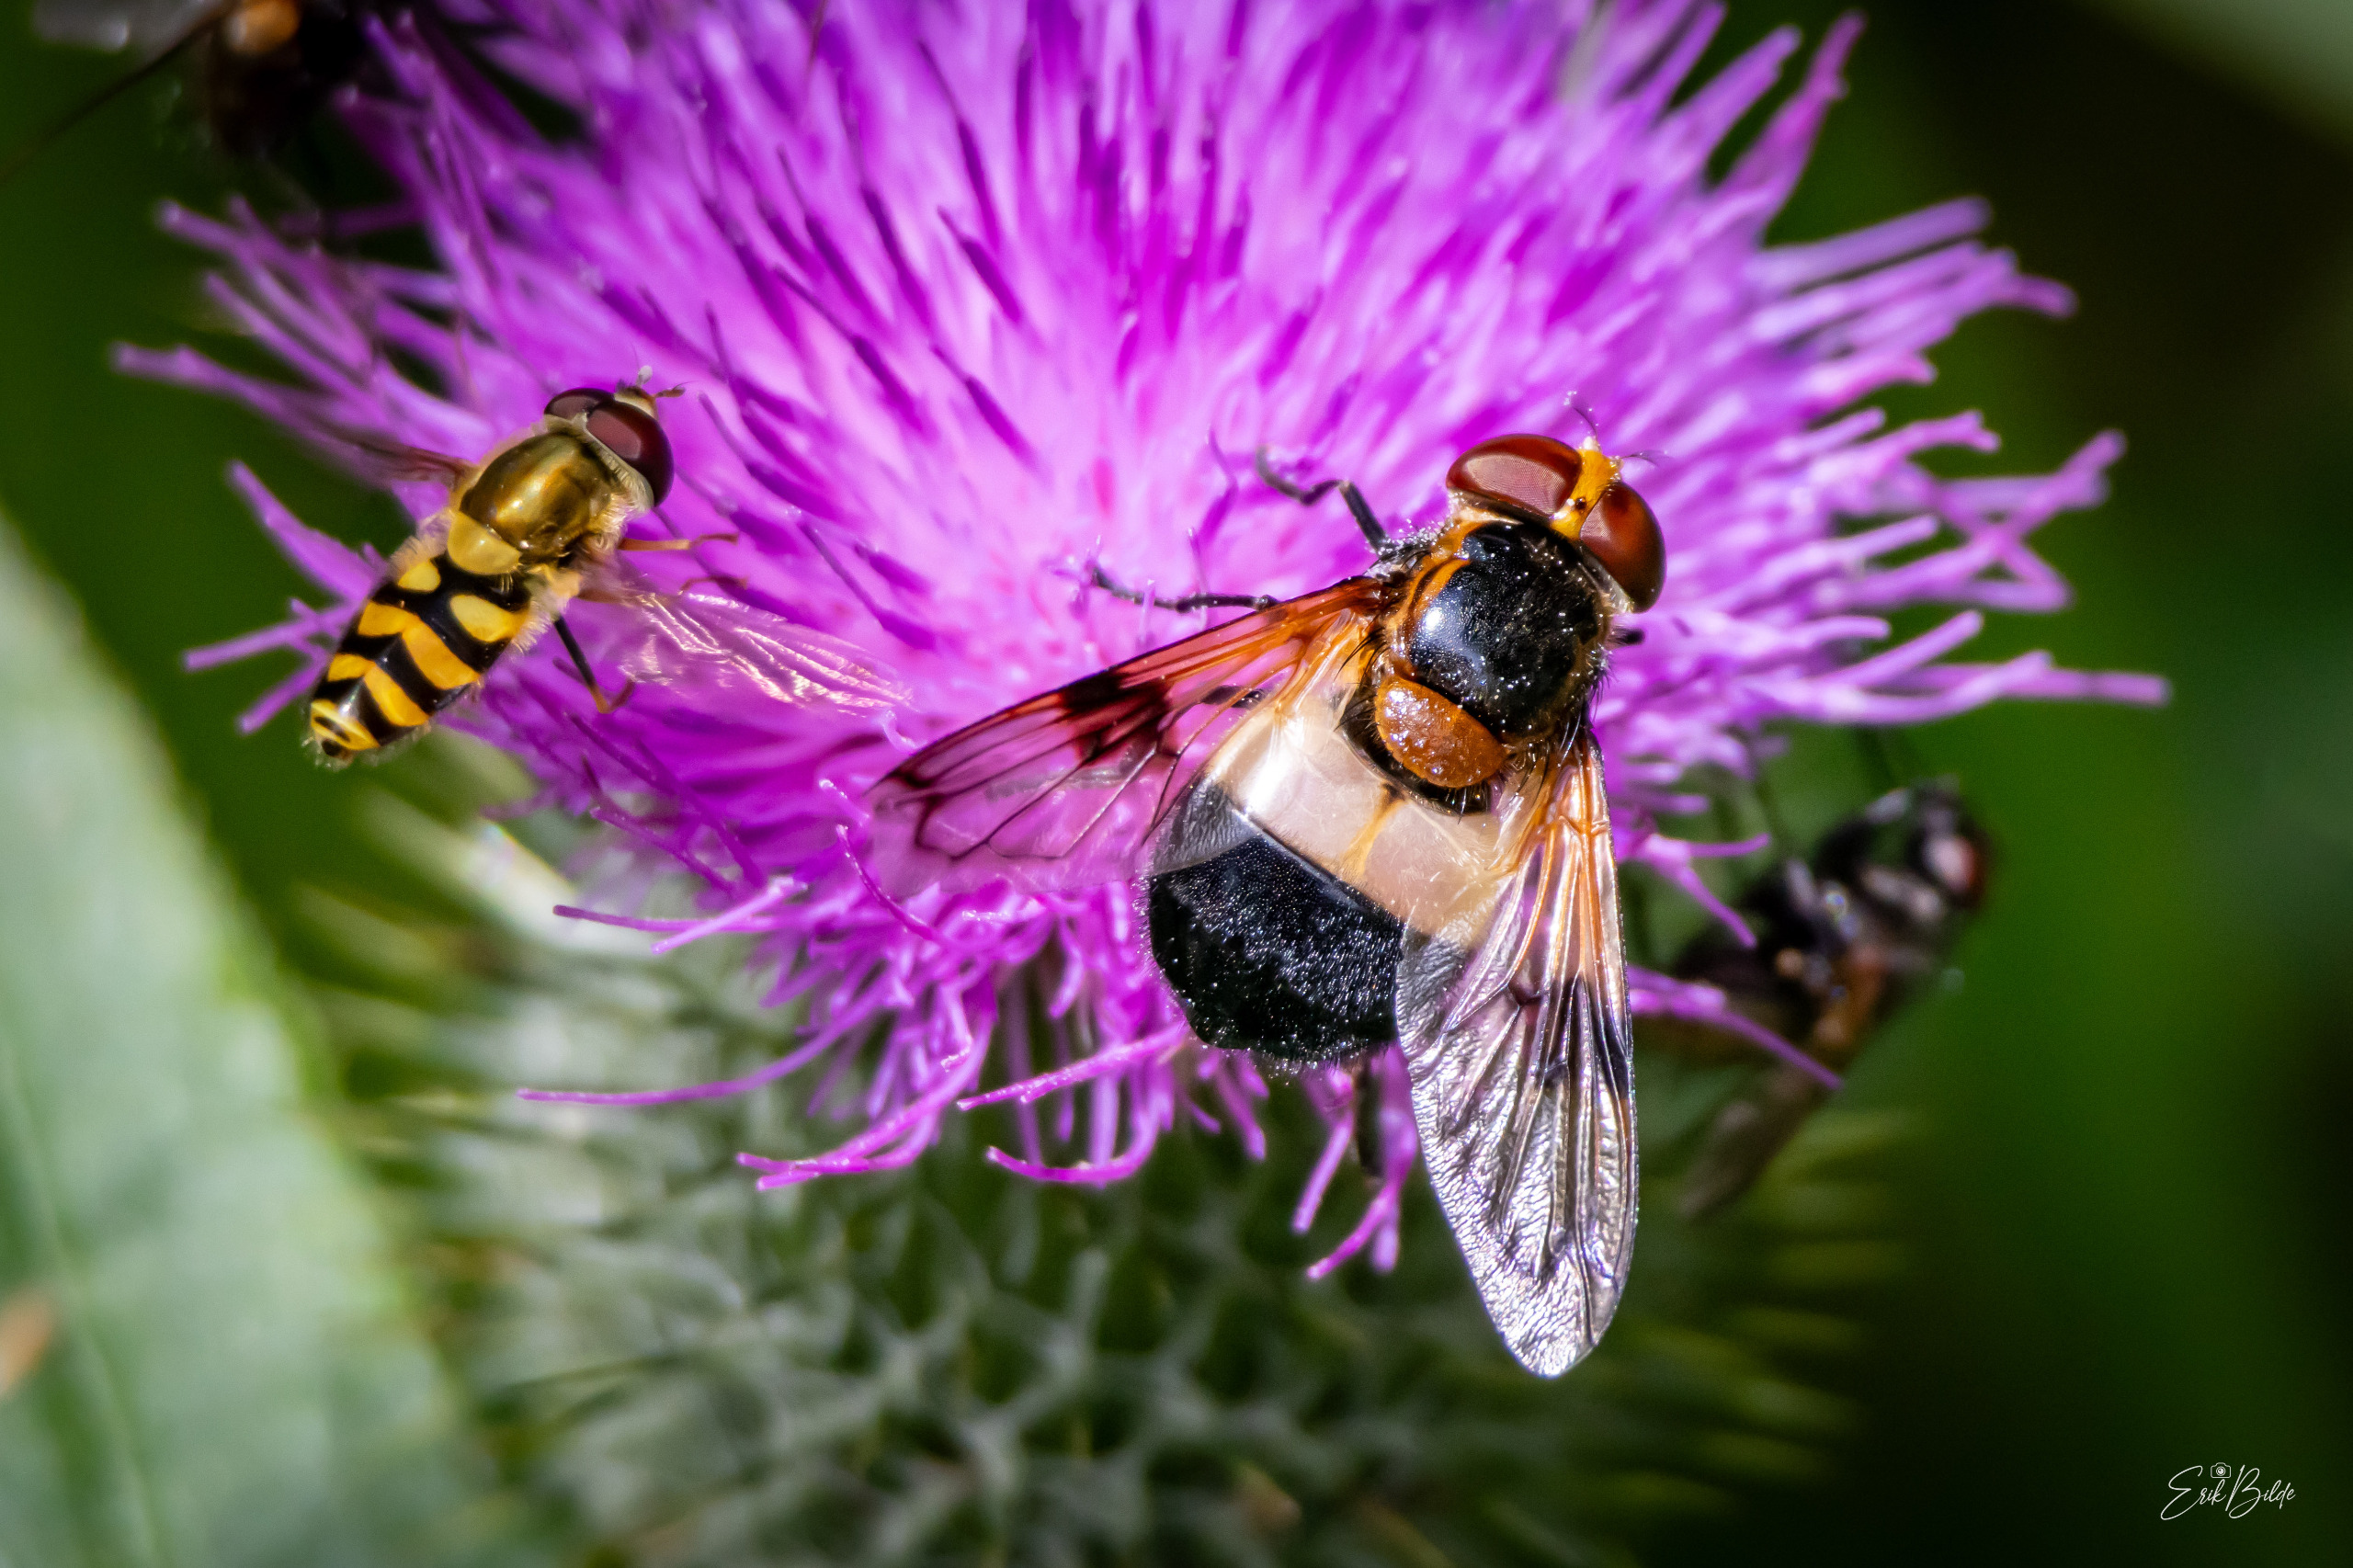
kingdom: Animalia
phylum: Arthropoda
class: Insecta
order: Diptera
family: Syrphidae
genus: Volucella
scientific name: Volucella pellucens
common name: Hvidbåndet humlesvirreflue
